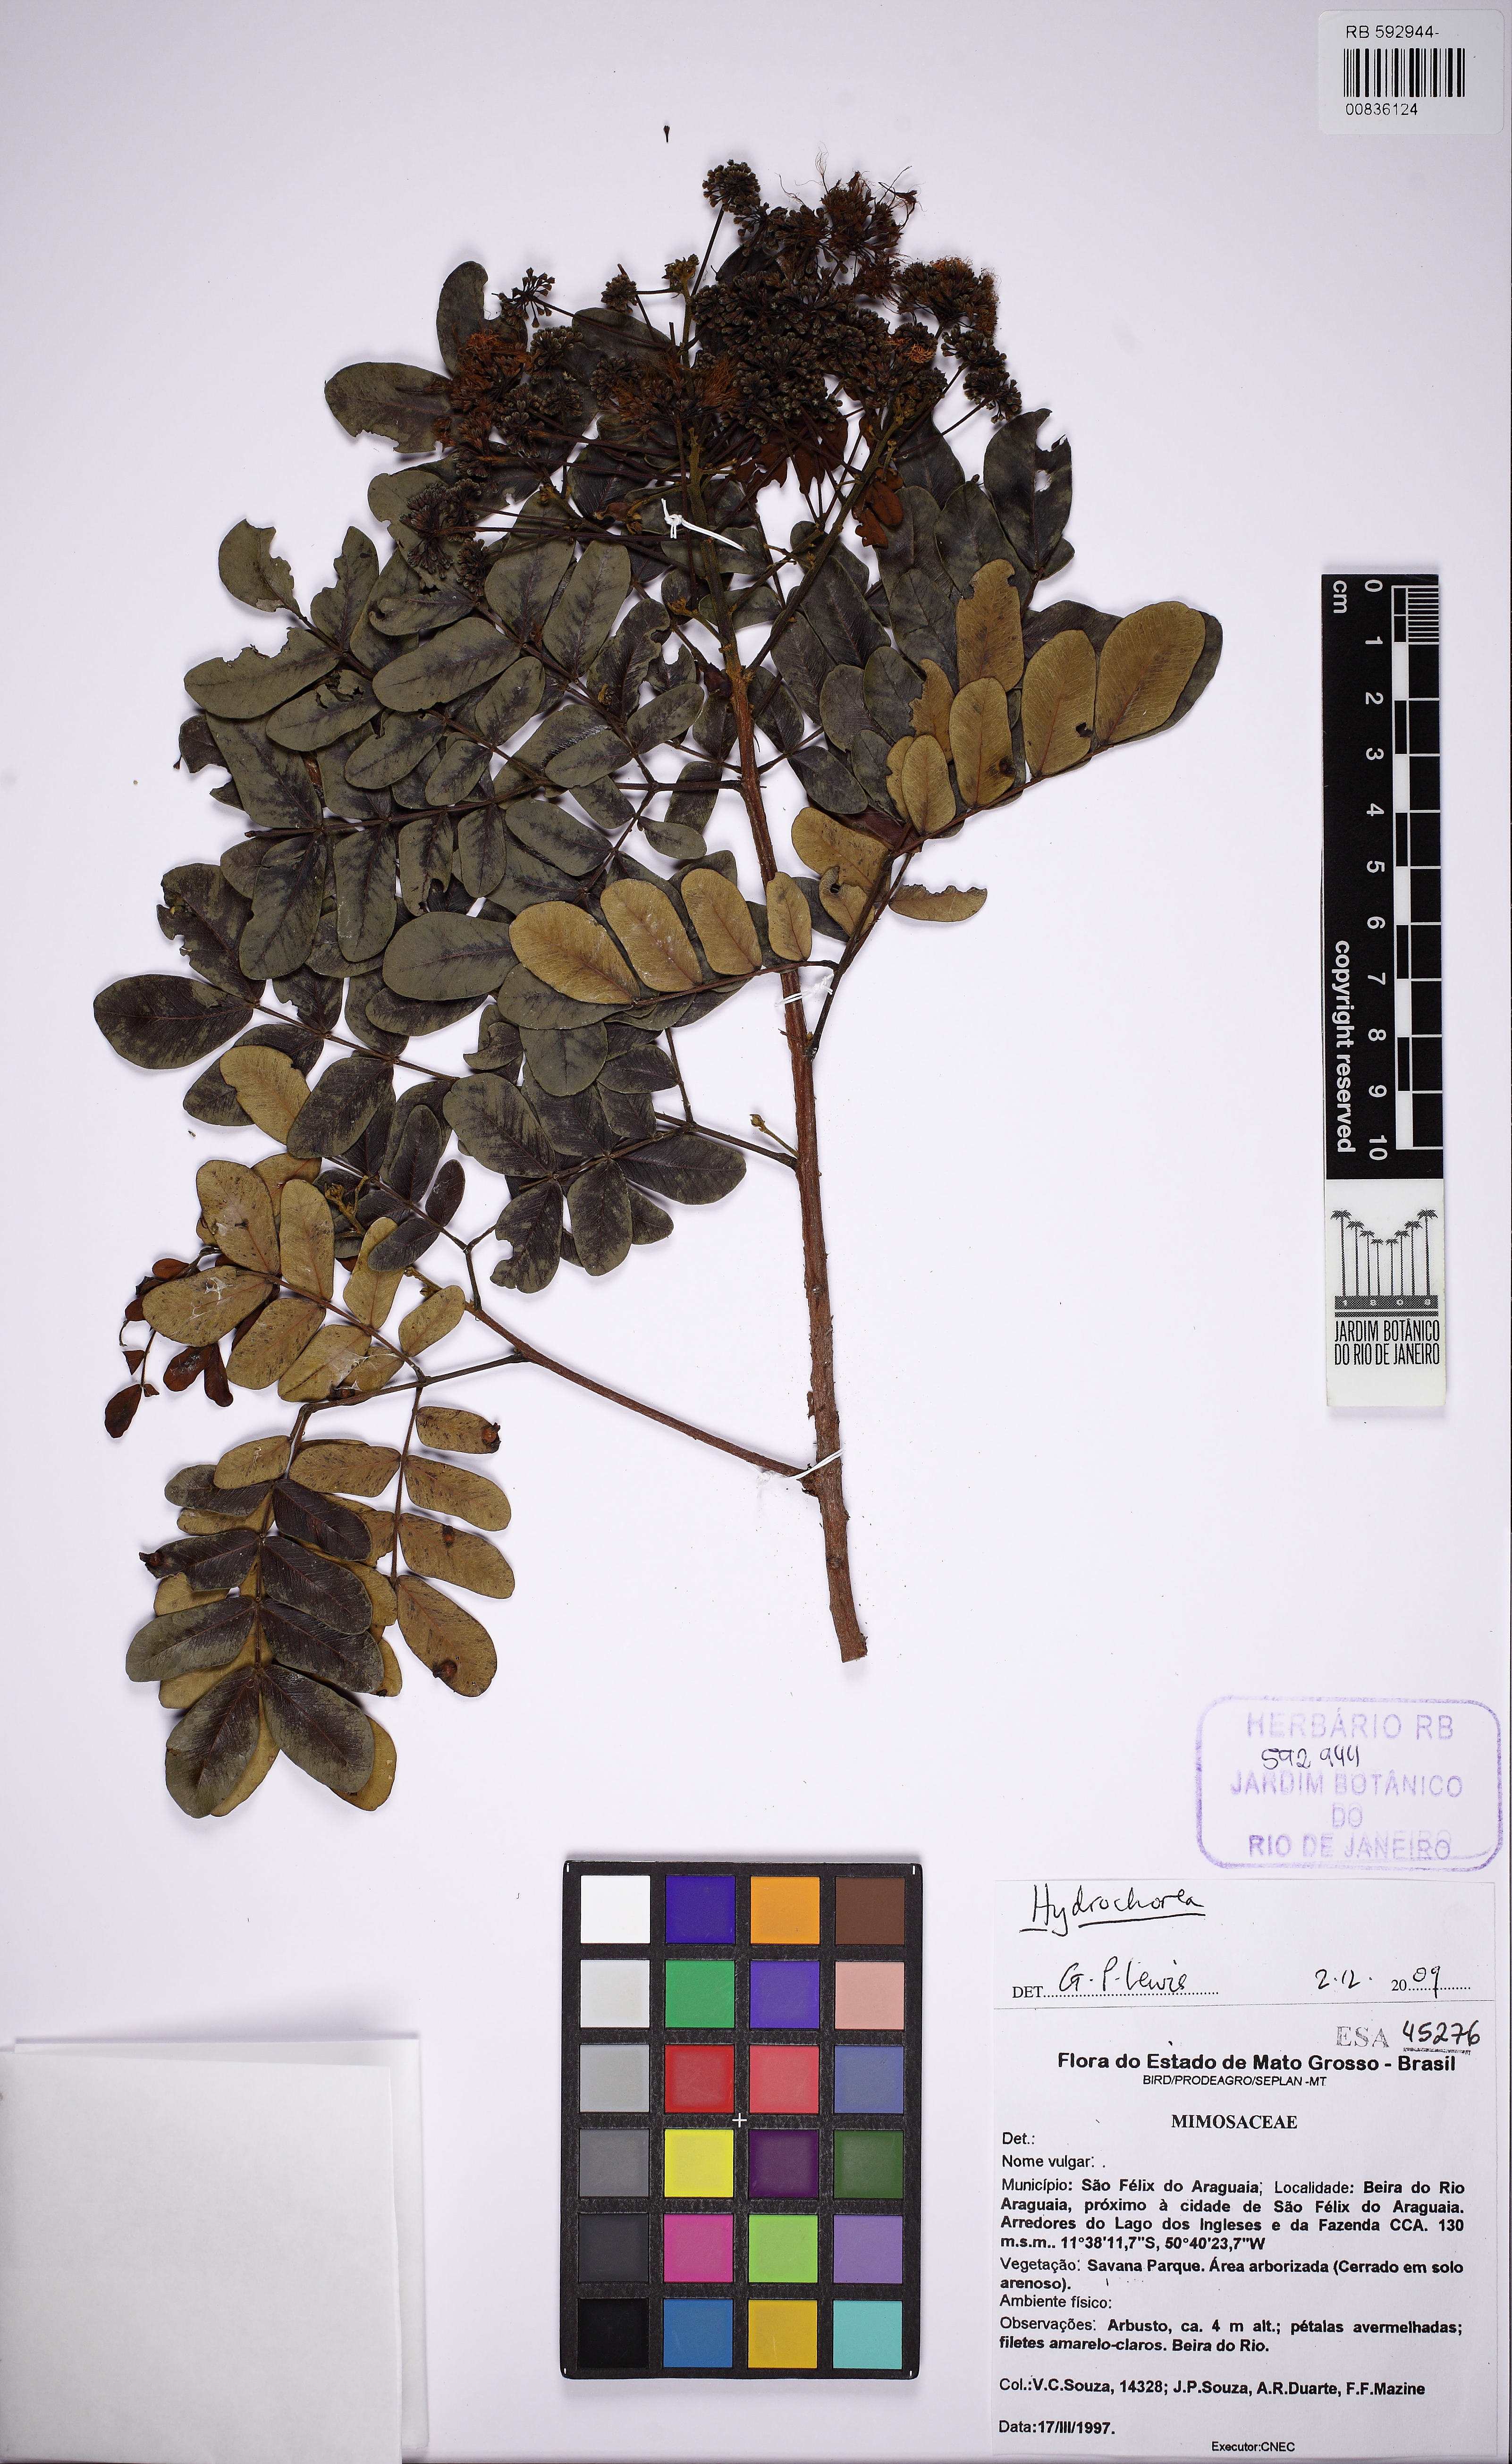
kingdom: Plantae
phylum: Tracheophyta
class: Magnoliopsida
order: Fabales
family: Fabaceae
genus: Hydrochorea
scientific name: Hydrochorea corymbosa
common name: Swamp manariballi
